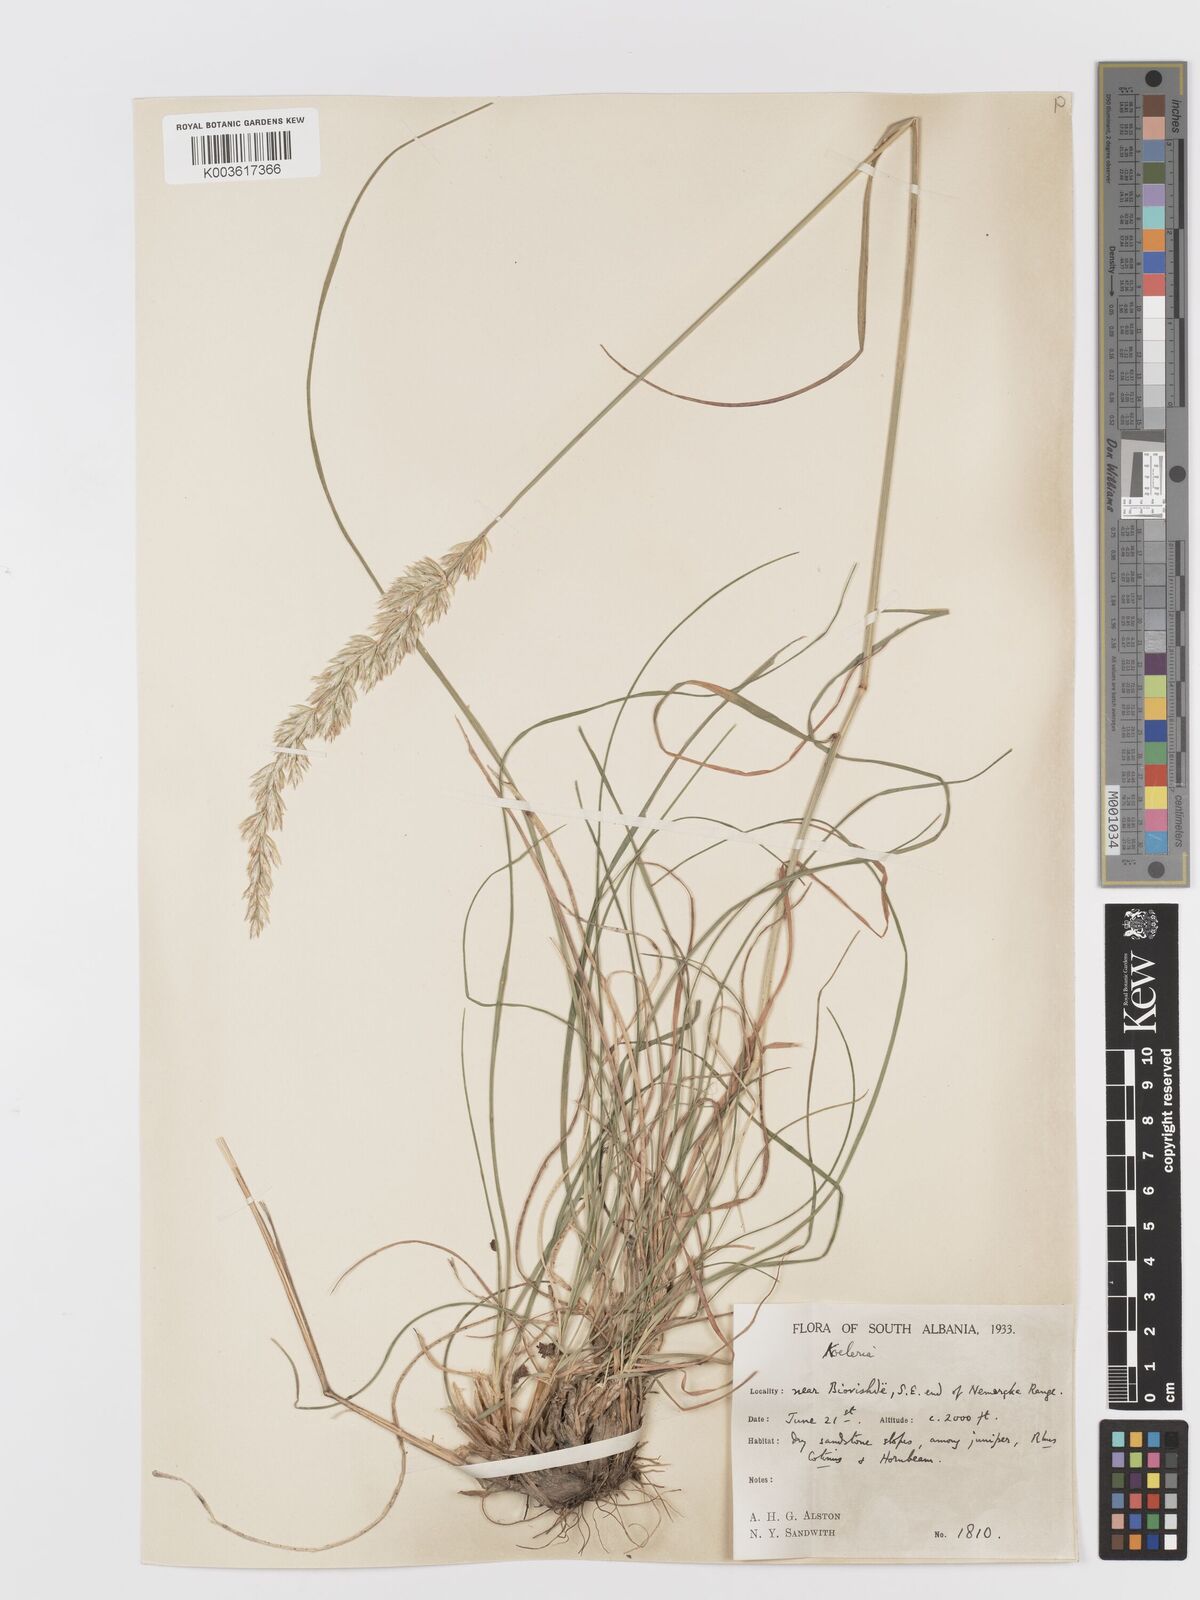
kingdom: Plantae
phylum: Tracheophyta
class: Liliopsida
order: Poales
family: Poaceae
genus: Koeleria
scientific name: Koeleria splendens
